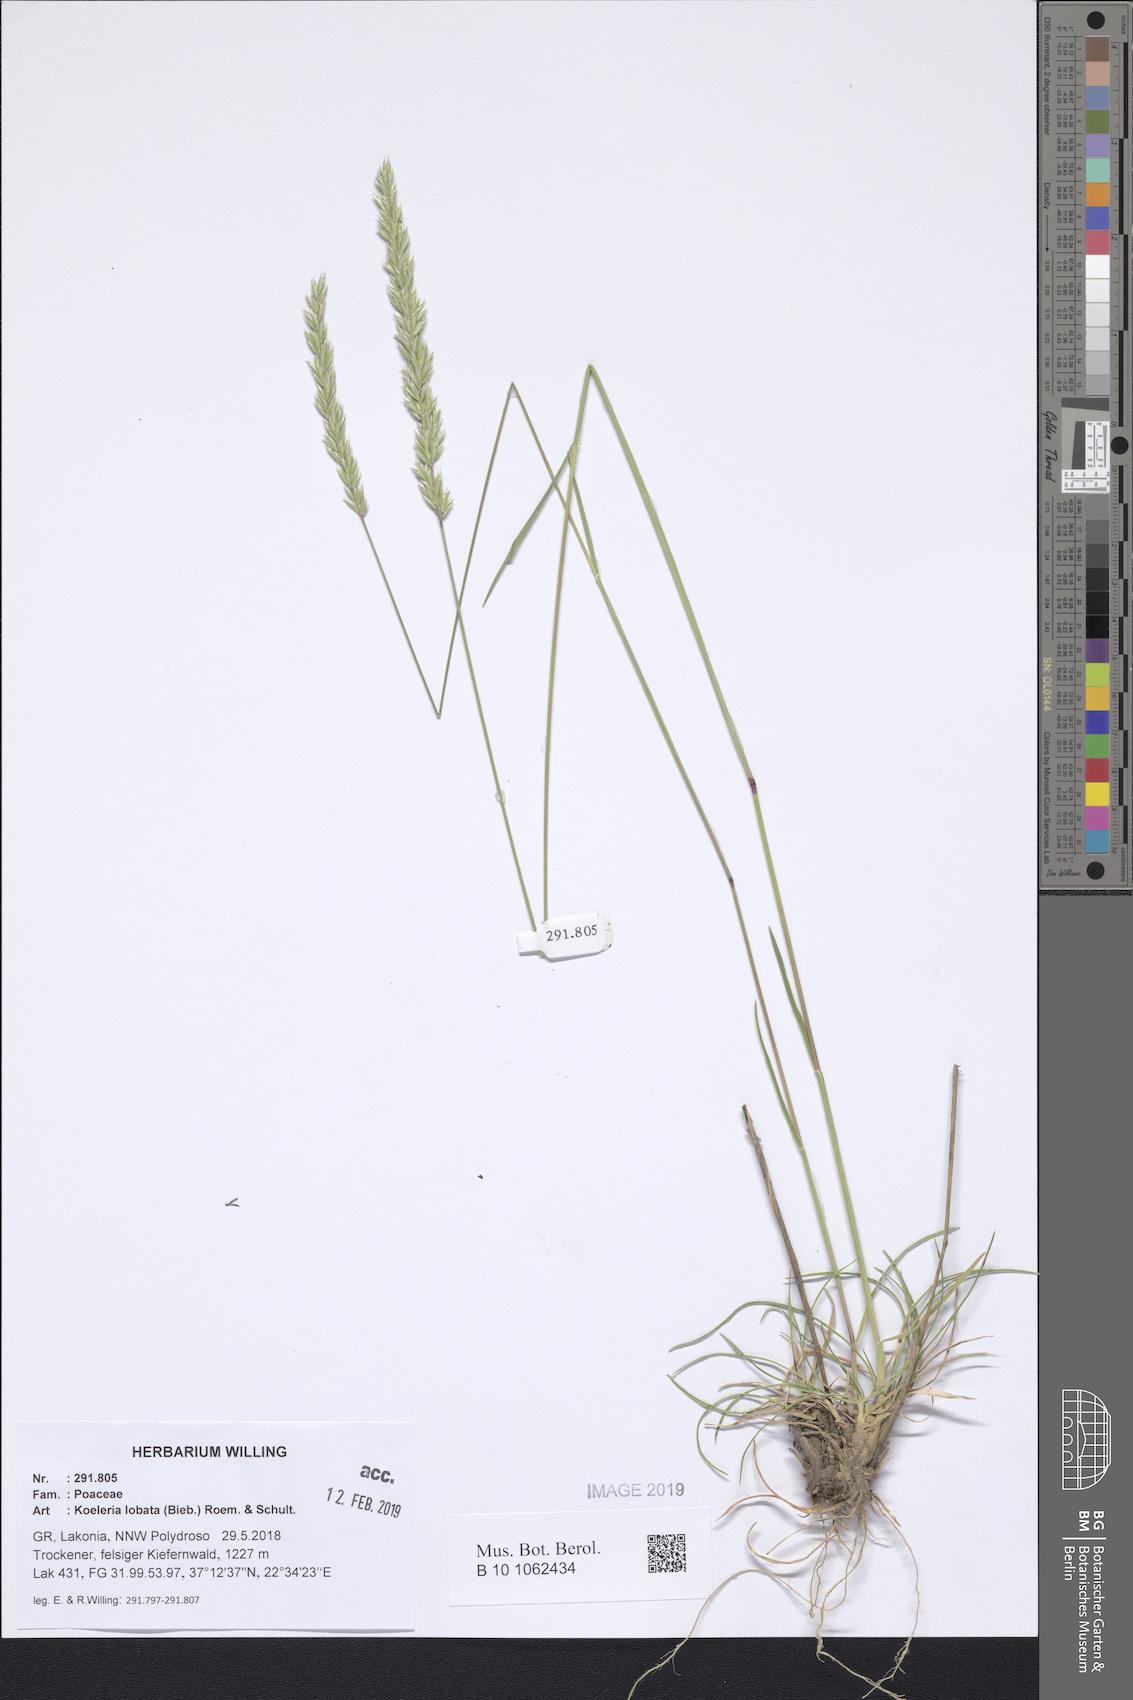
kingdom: Plantae
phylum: Tracheophyta
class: Liliopsida
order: Poales
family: Poaceae
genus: Koeleria
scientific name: Koeleria brevis
